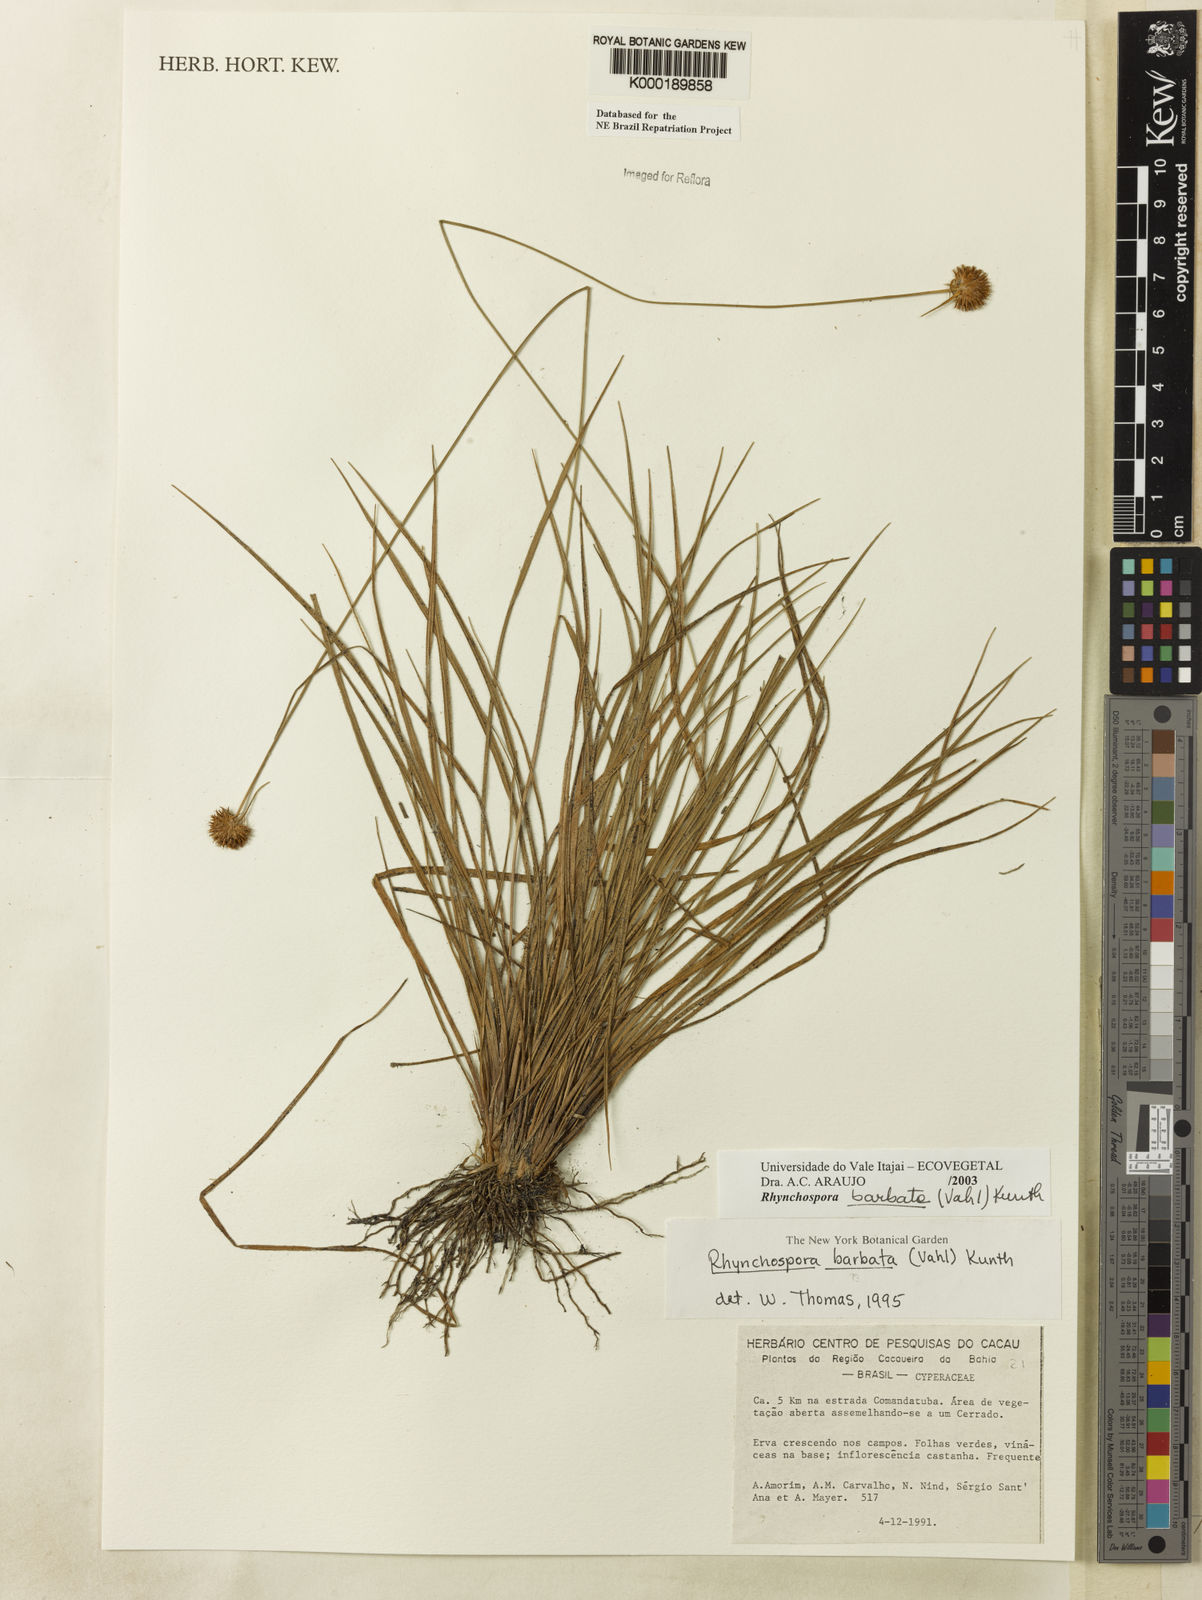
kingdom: Plantae
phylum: Tracheophyta
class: Liliopsida
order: Poales
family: Cyperaceae
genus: Rhynchospora
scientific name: Rhynchospora barbata
